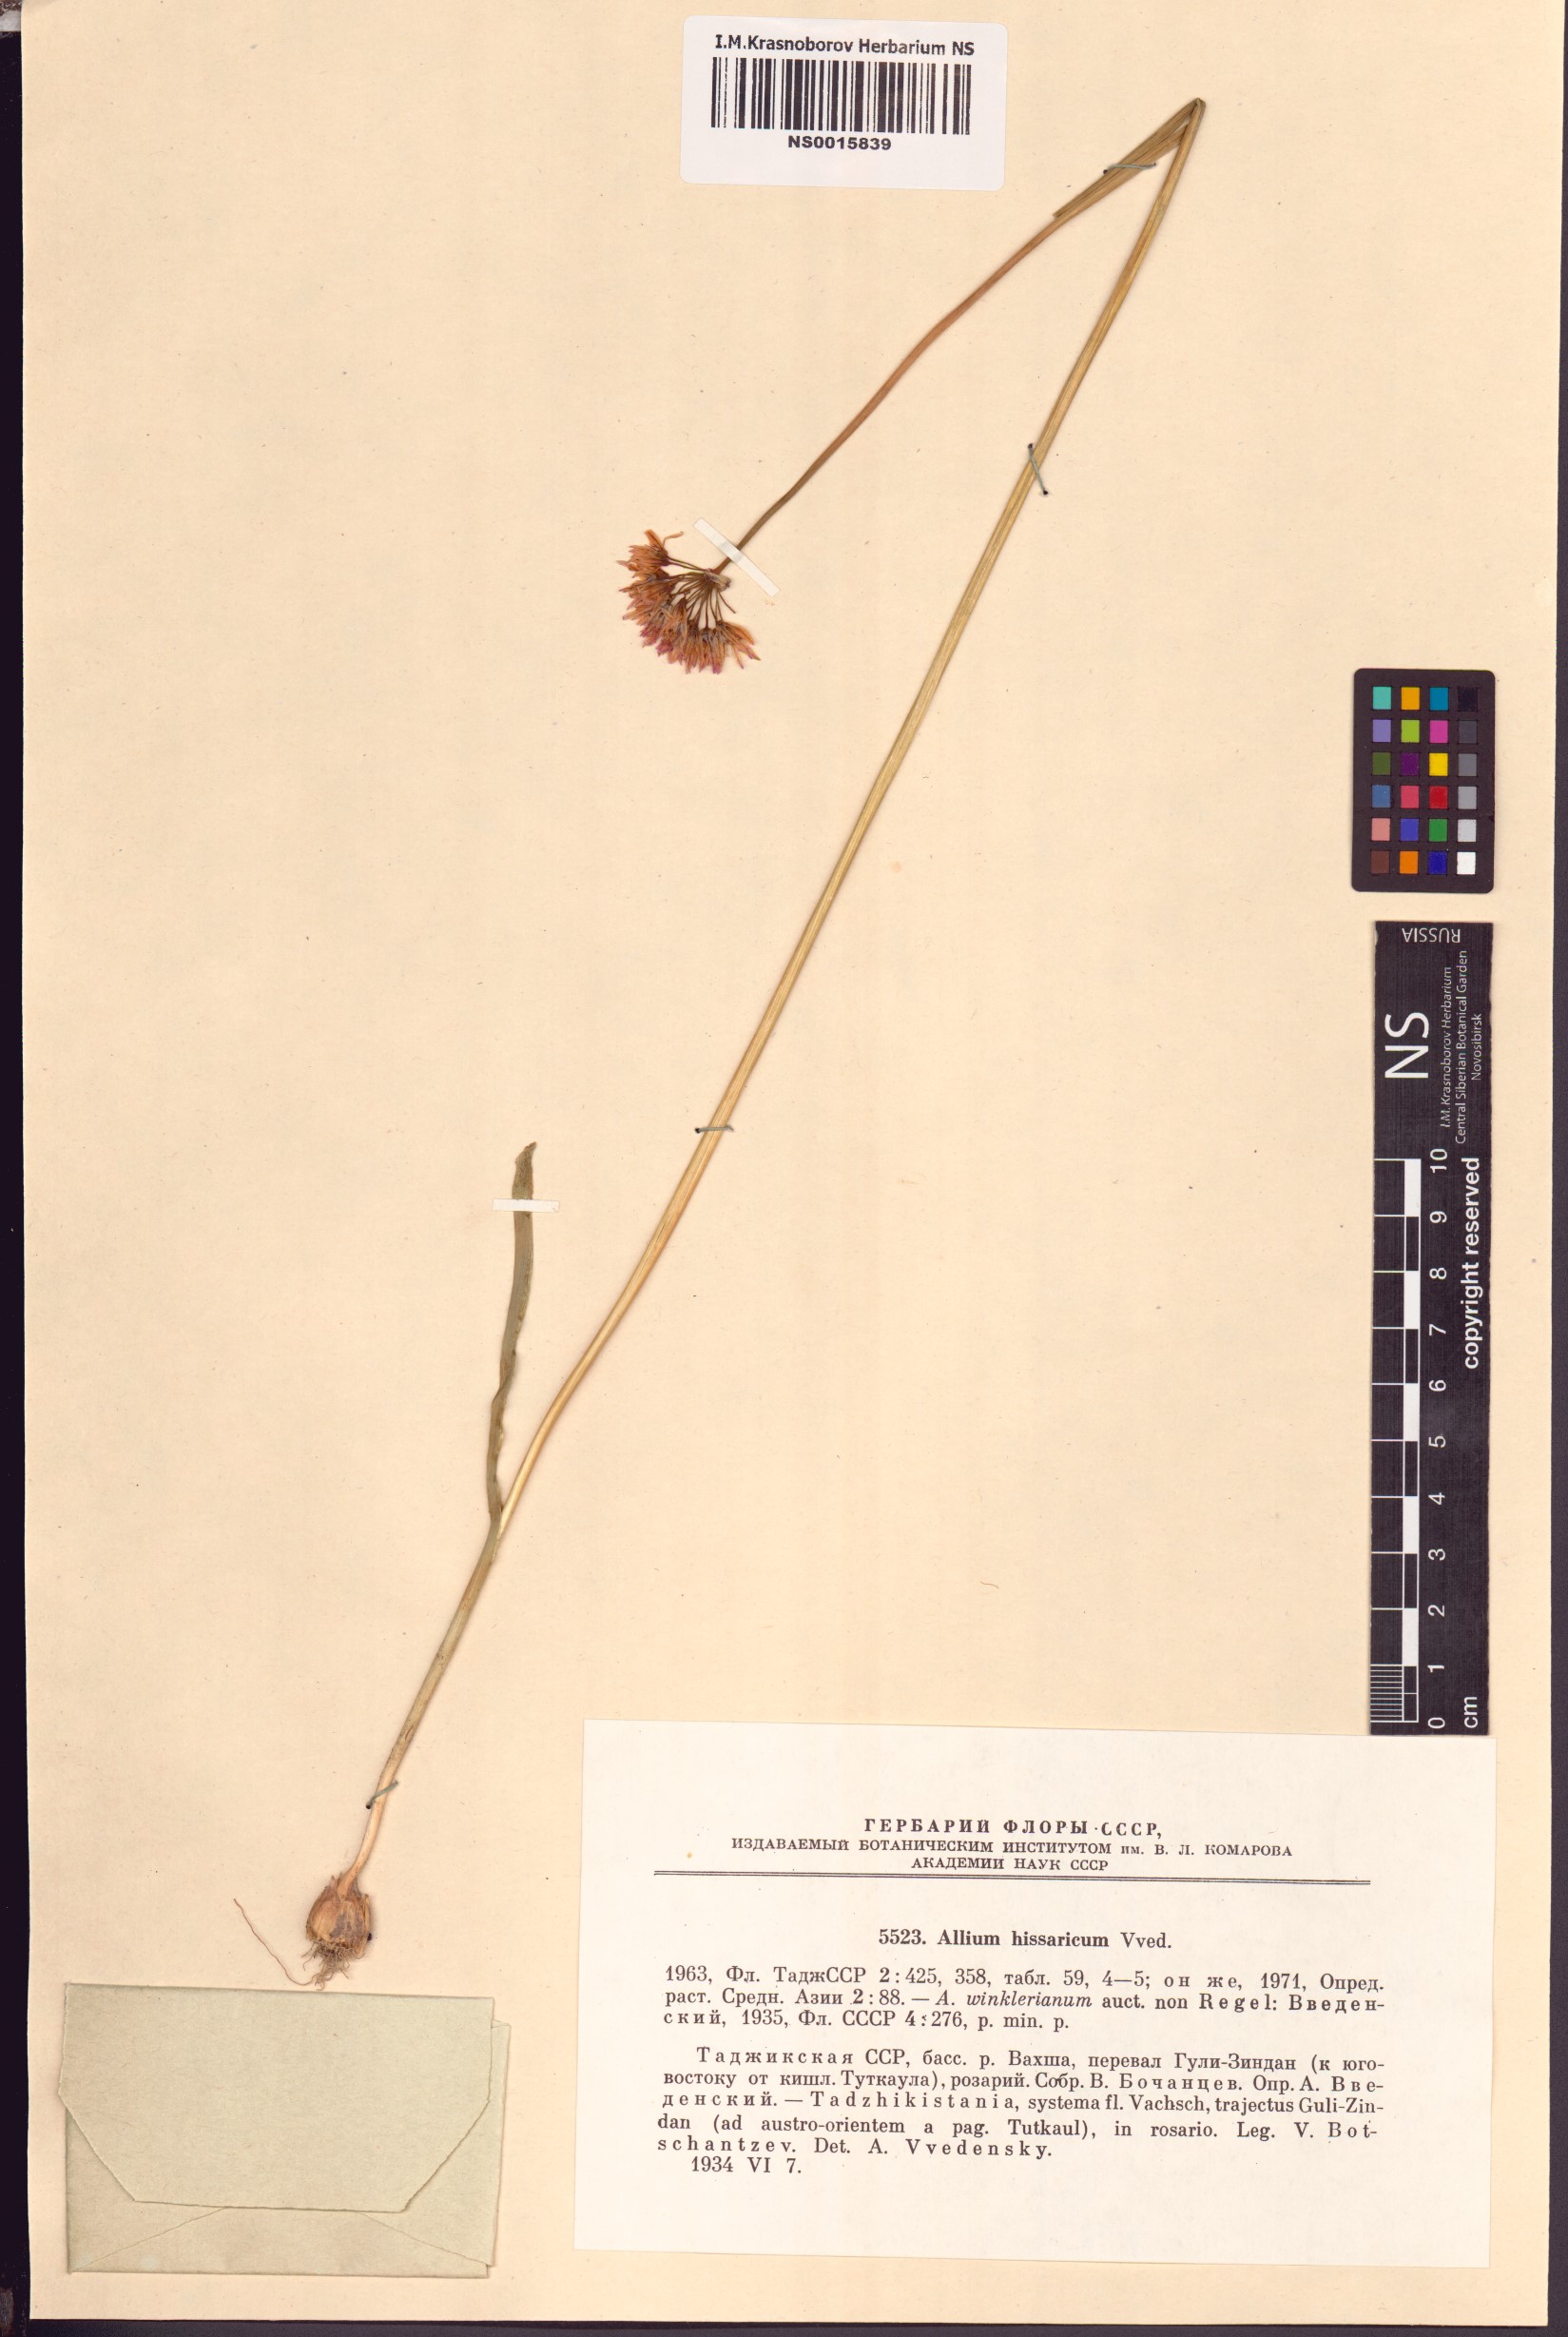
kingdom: Plantae
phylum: Tracheophyta
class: Liliopsida
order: Asparagales
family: Amaryllidaceae
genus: Allium
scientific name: Allium hissaricum
